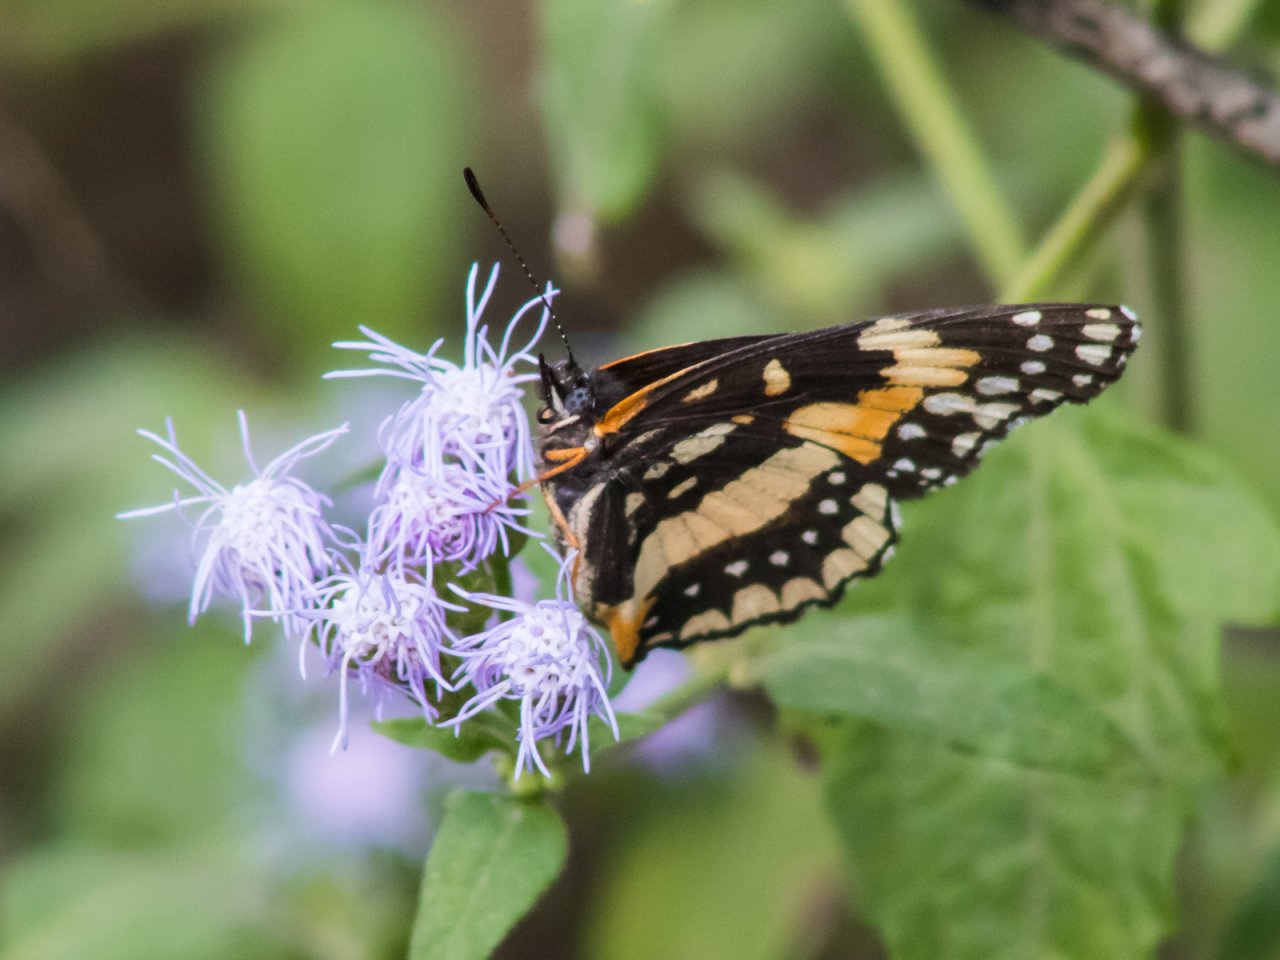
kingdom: Animalia
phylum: Arthropoda
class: Insecta
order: Lepidoptera
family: Nymphalidae
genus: Chlosyne
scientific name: Chlosyne lacinia
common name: Bordered Patch
